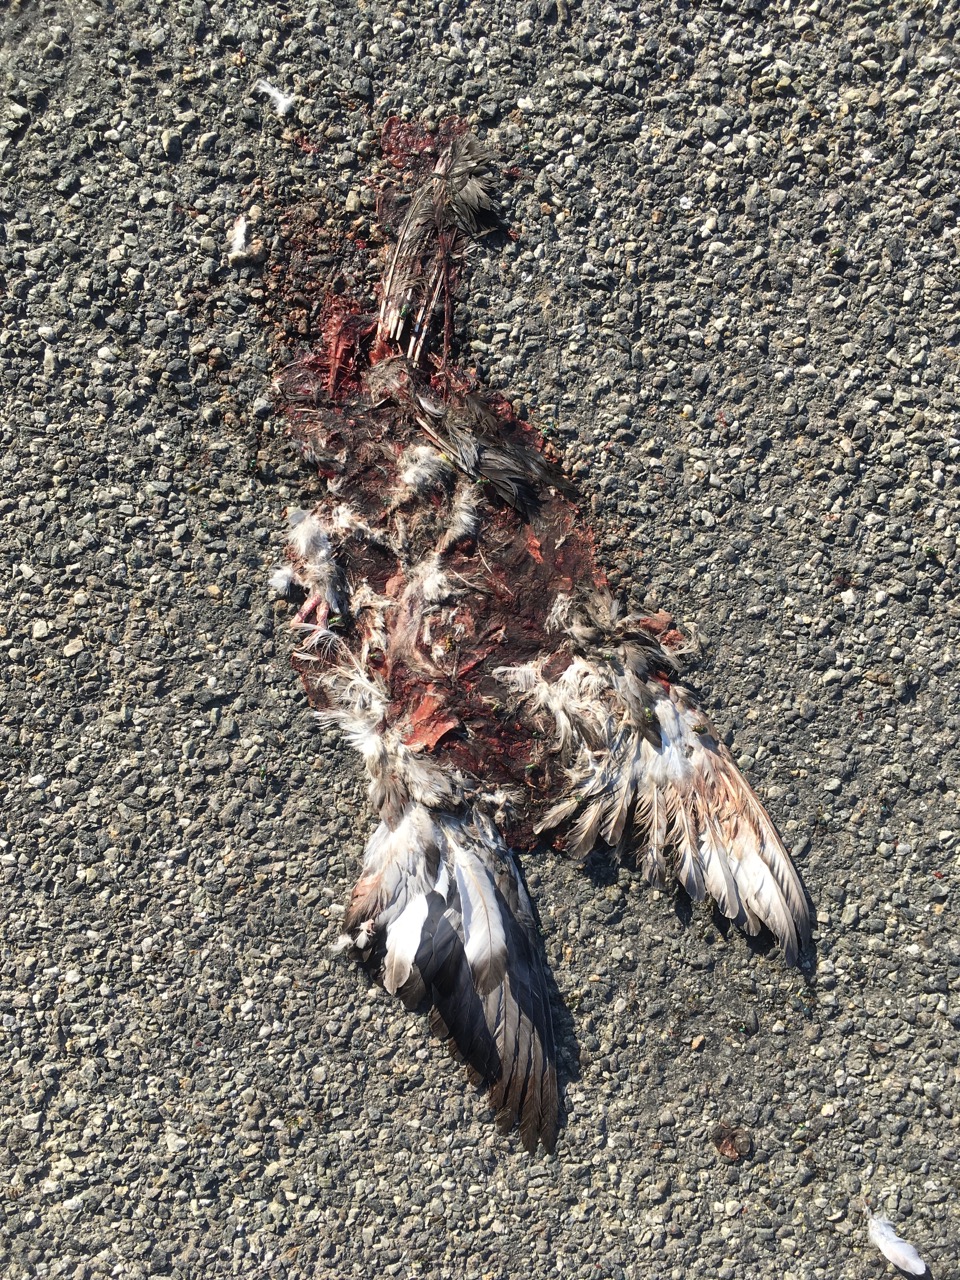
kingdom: Animalia
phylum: Chordata
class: Aves
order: Columbiformes
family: Columbidae
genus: Streptopelia
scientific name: Streptopelia decaocto
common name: Eurasian collared dove
